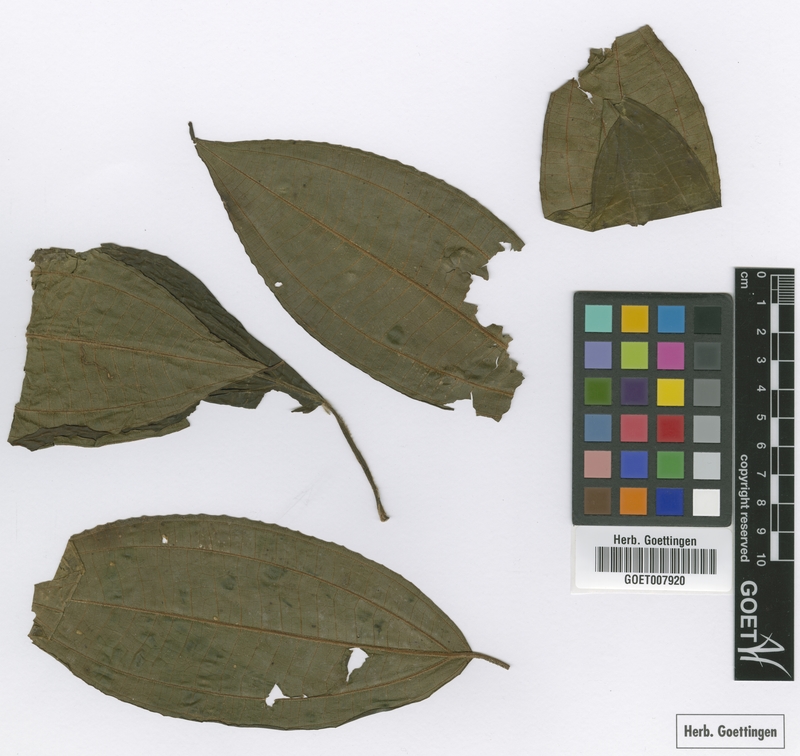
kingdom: Plantae
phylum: Tracheophyta
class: Magnoliopsida
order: Myrtales
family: Melastomataceae
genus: Miconia
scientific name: Miconia galeottii
